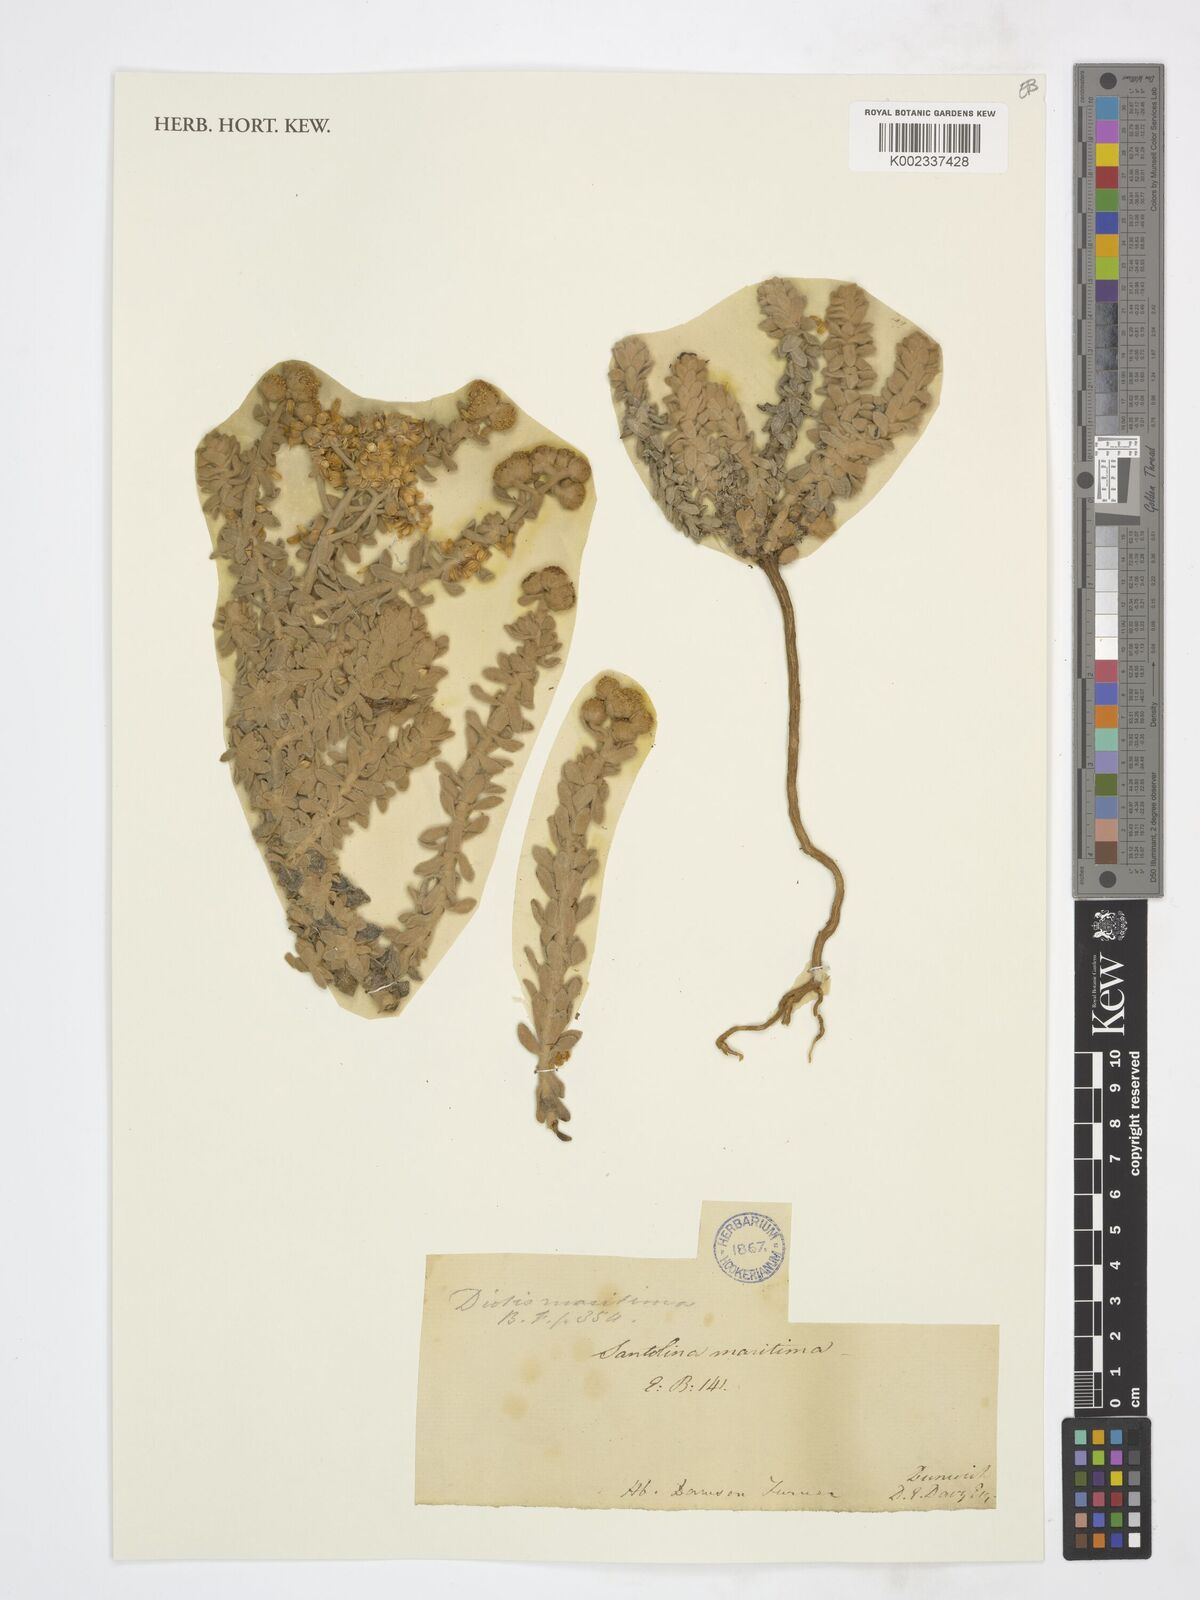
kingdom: Plantae
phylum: Tracheophyta
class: Magnoliopsida
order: Asterales
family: Asteraceae
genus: Achillea
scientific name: Achillea maritima
